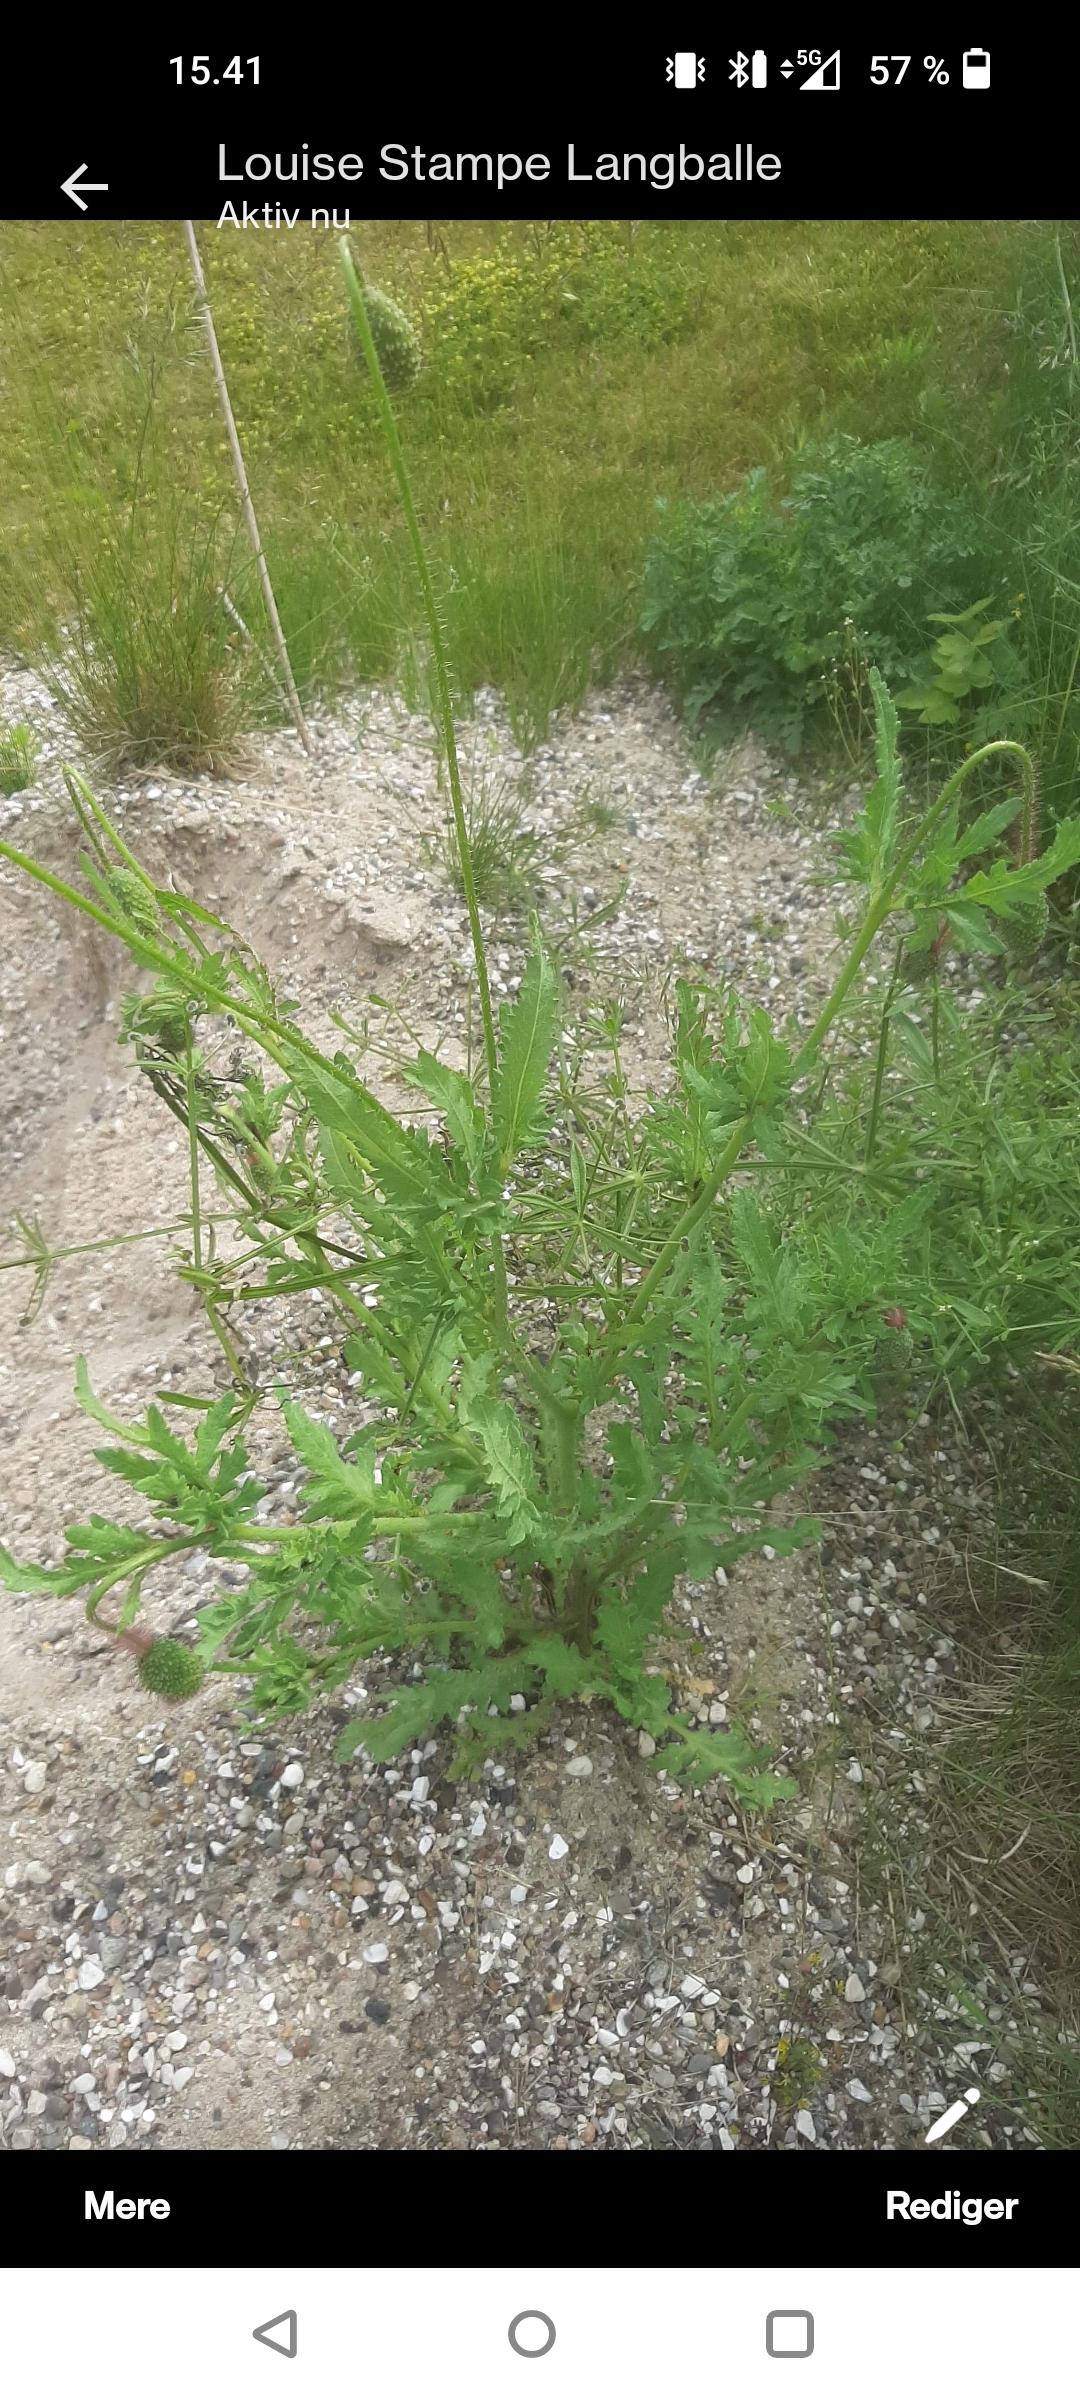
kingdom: Plantae
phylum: Tracheophyta
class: Magnoliopsida
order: Ranunculales
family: Papaveraceae
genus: Papaver
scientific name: Papaver rhoeas
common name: Korn-valmue
